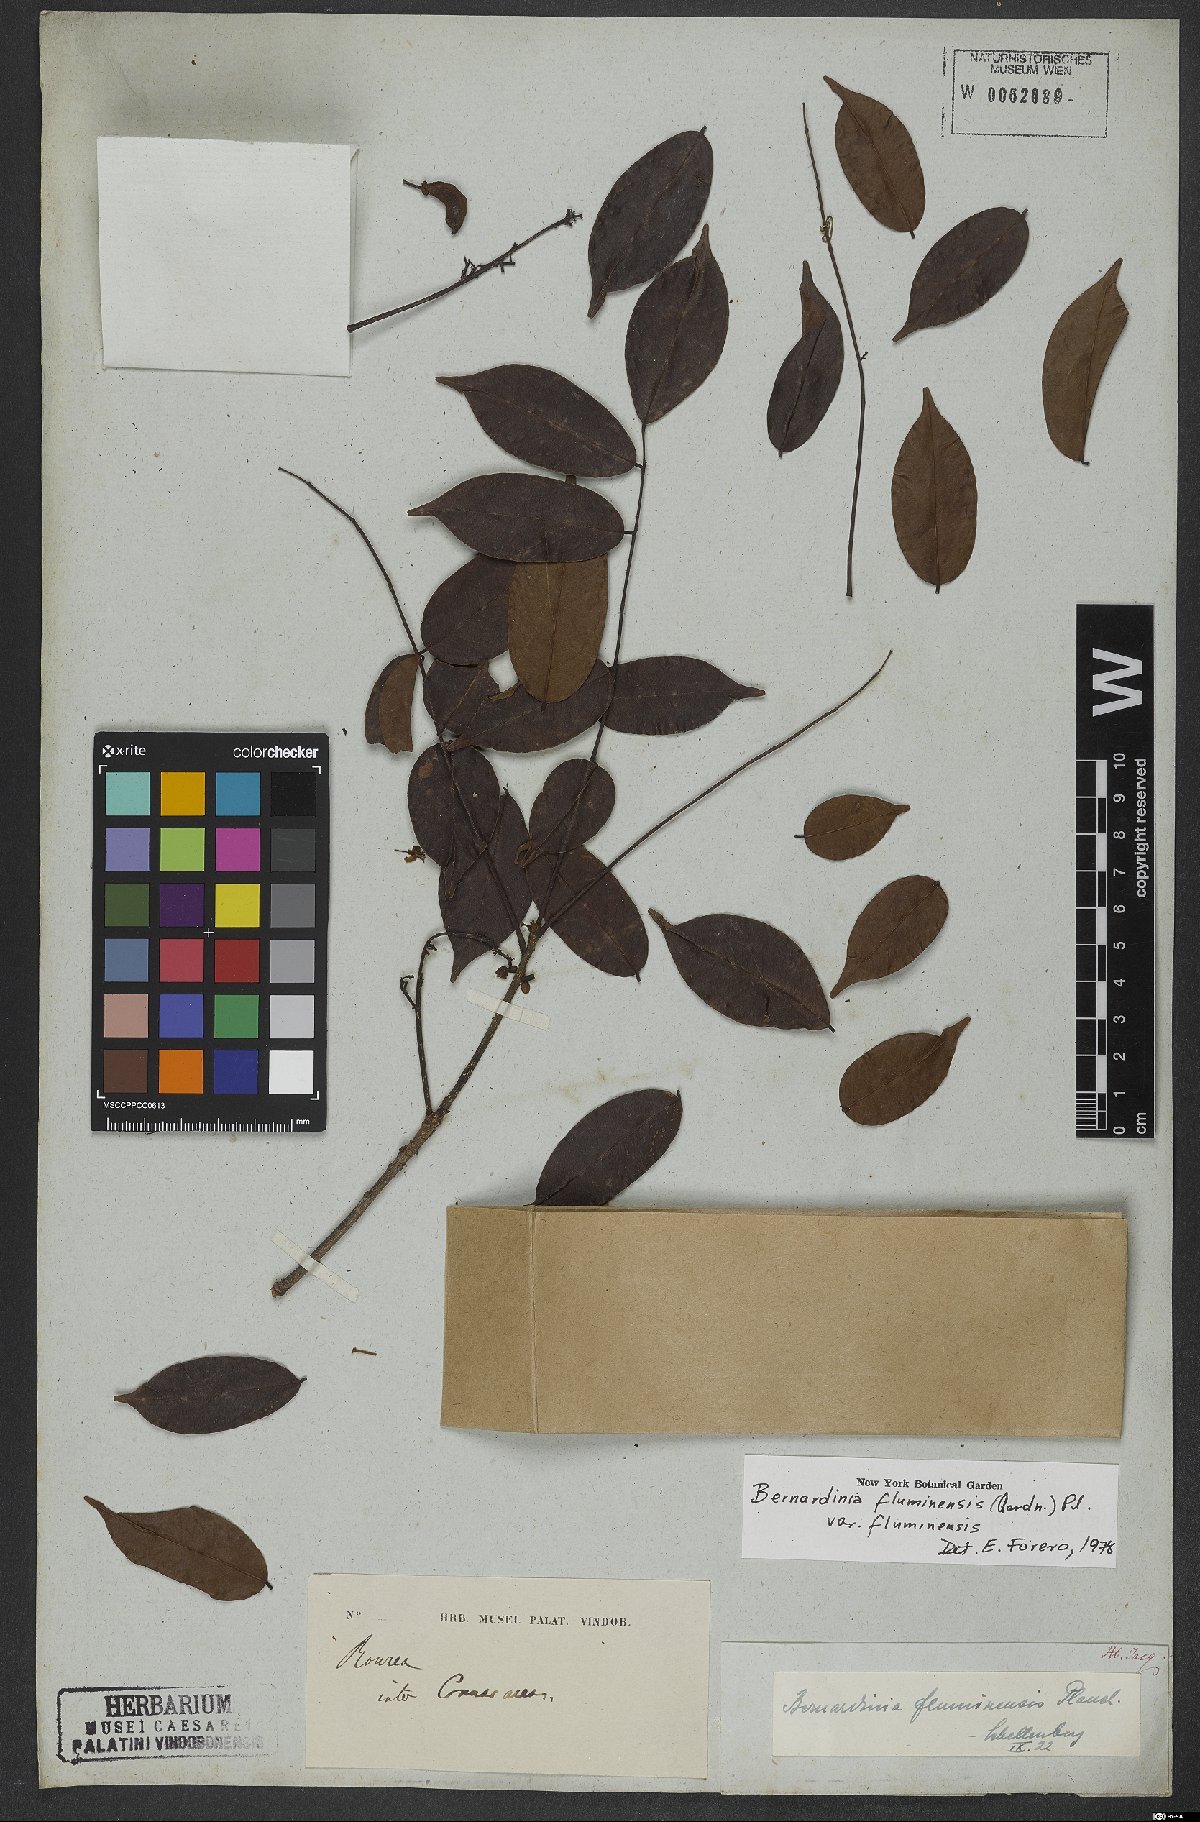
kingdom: Plantae
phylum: Tracheophyta
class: Magnoliopsida
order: Oxalidales
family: Connaraceae
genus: Rourea
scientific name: Rourea fluminensis
